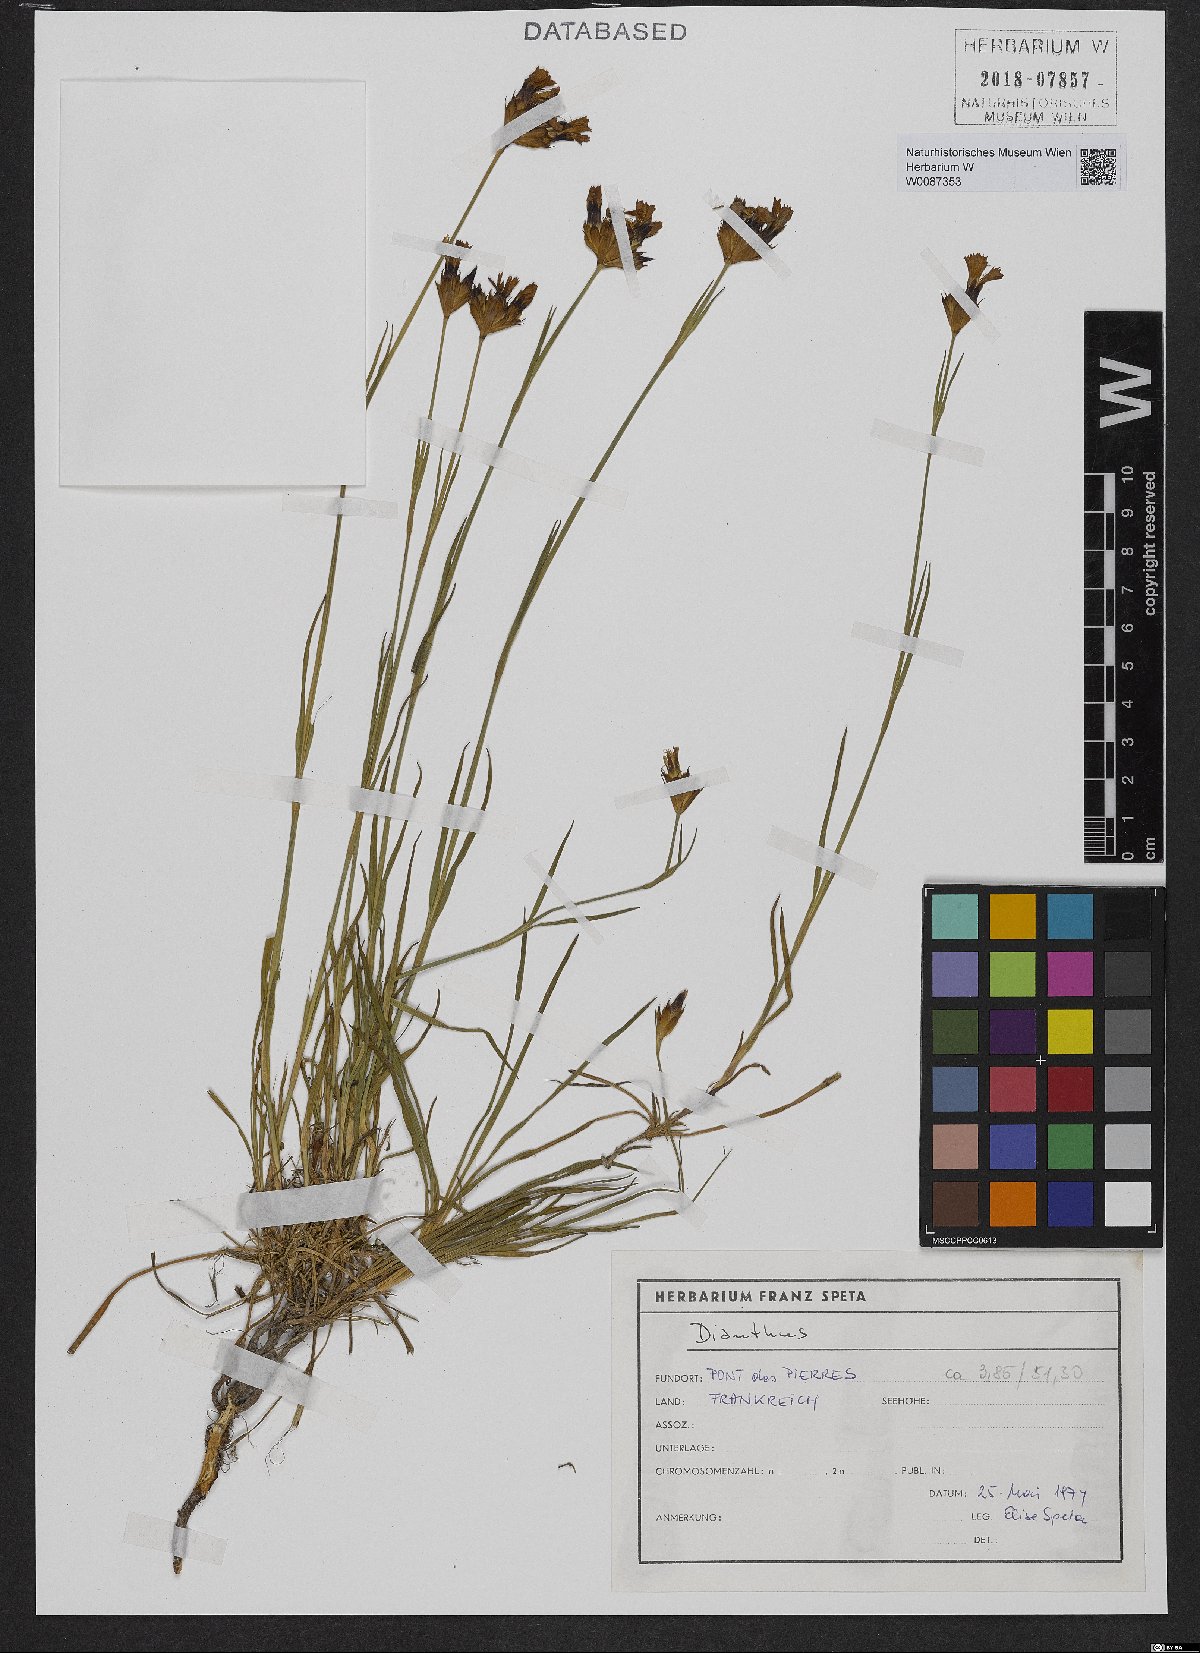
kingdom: Plantae
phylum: Tracheophyta
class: Magnoliopsida
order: Caryophyllales
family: Caryophyllaceae
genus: Dianthus
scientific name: Dianthus carthusianorum
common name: Carthusian pink
